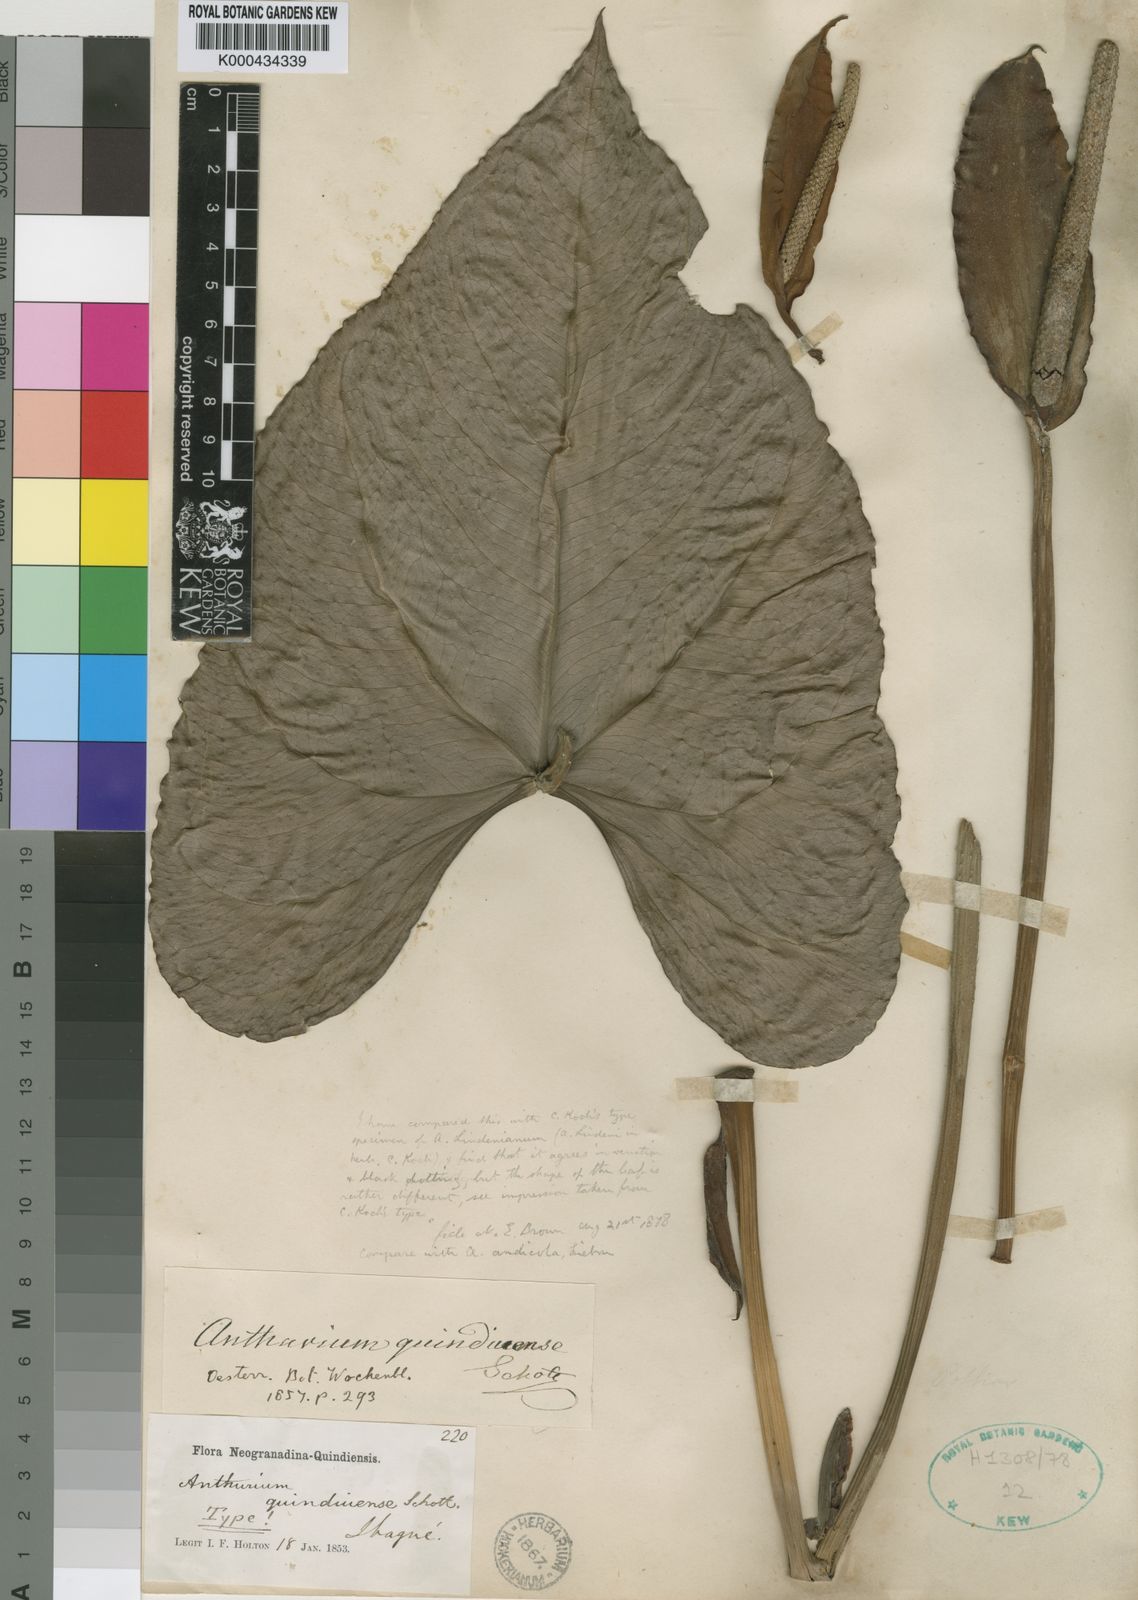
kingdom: Plantae
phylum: Tracheophyta
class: Liliopsida
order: Alismatales
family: Araceae
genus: Anthurium
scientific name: Anthurium
